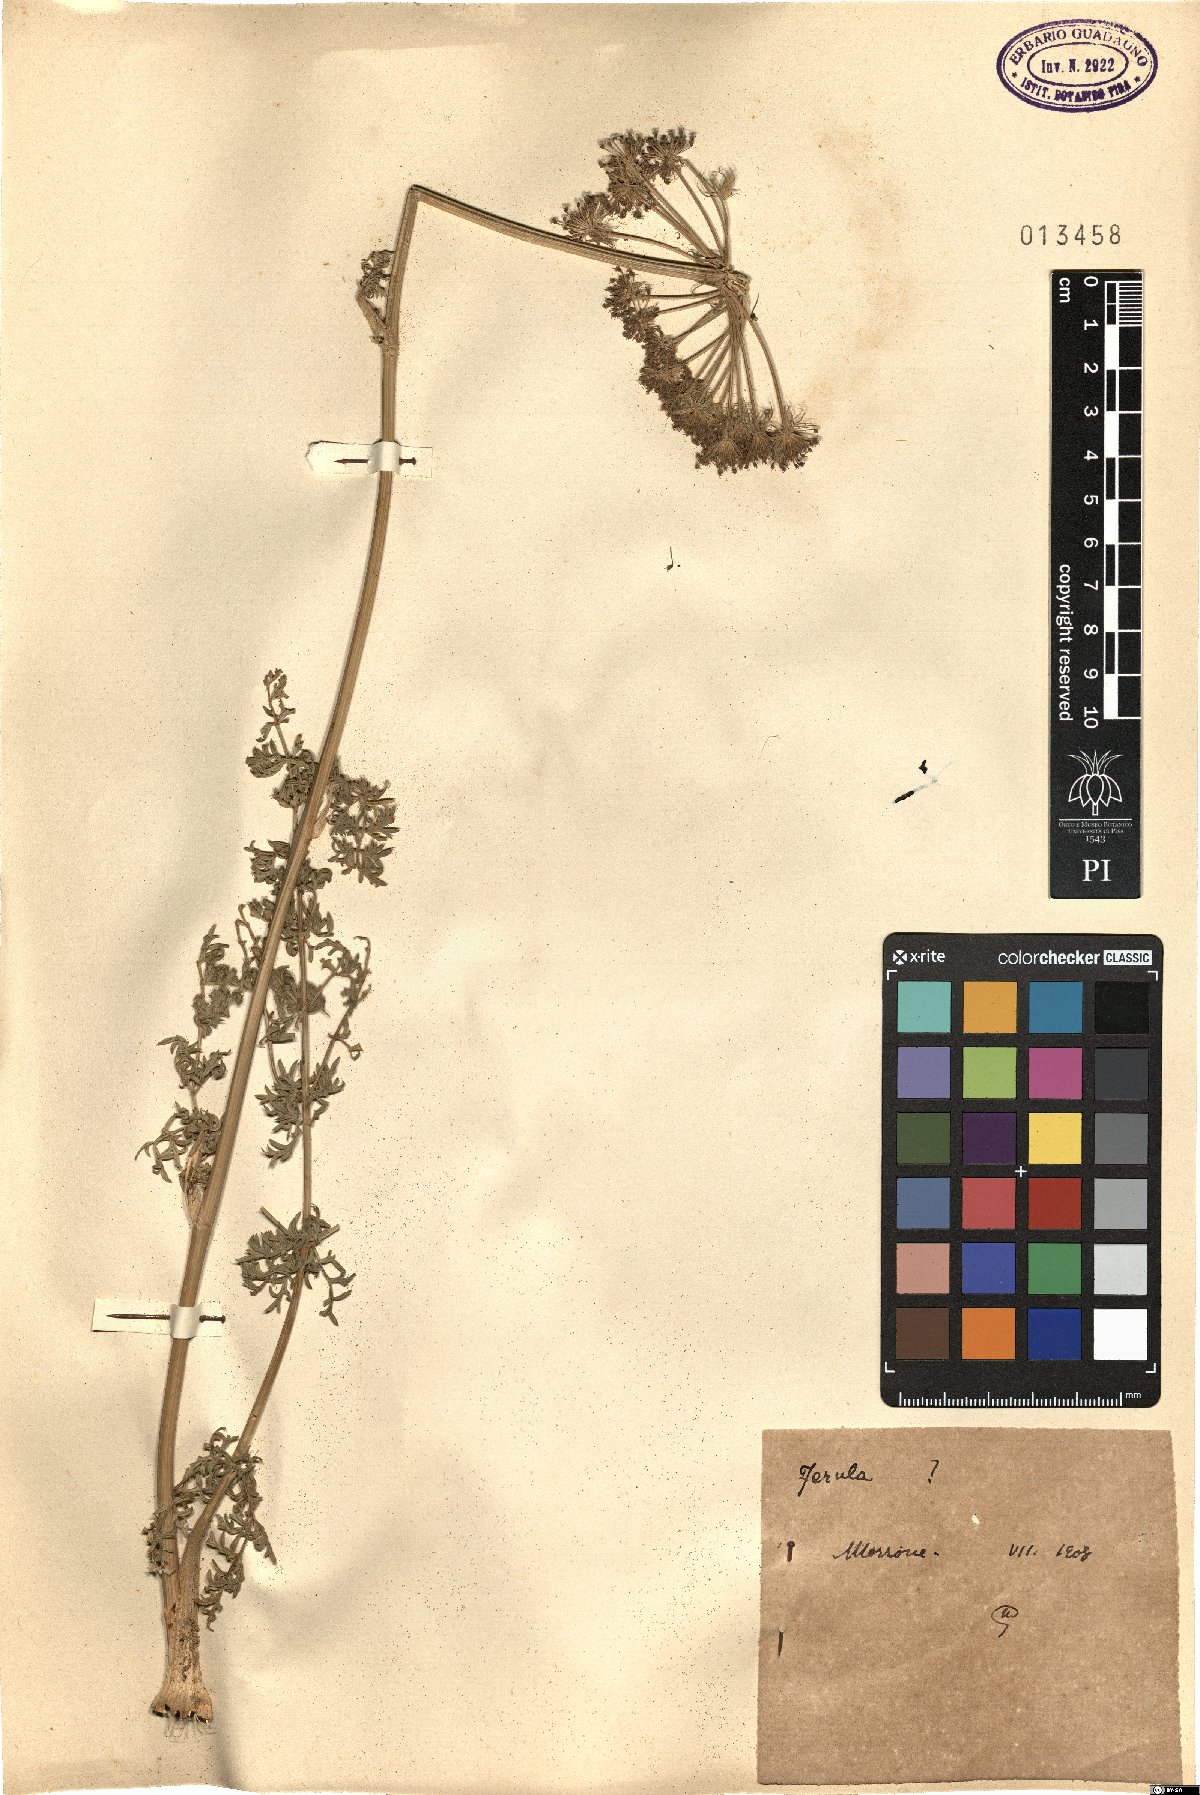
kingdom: Plantae
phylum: Tracheophyta
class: Magnoliopsida
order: Apiales
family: Apiaceae
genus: Ferula
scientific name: Ferula
